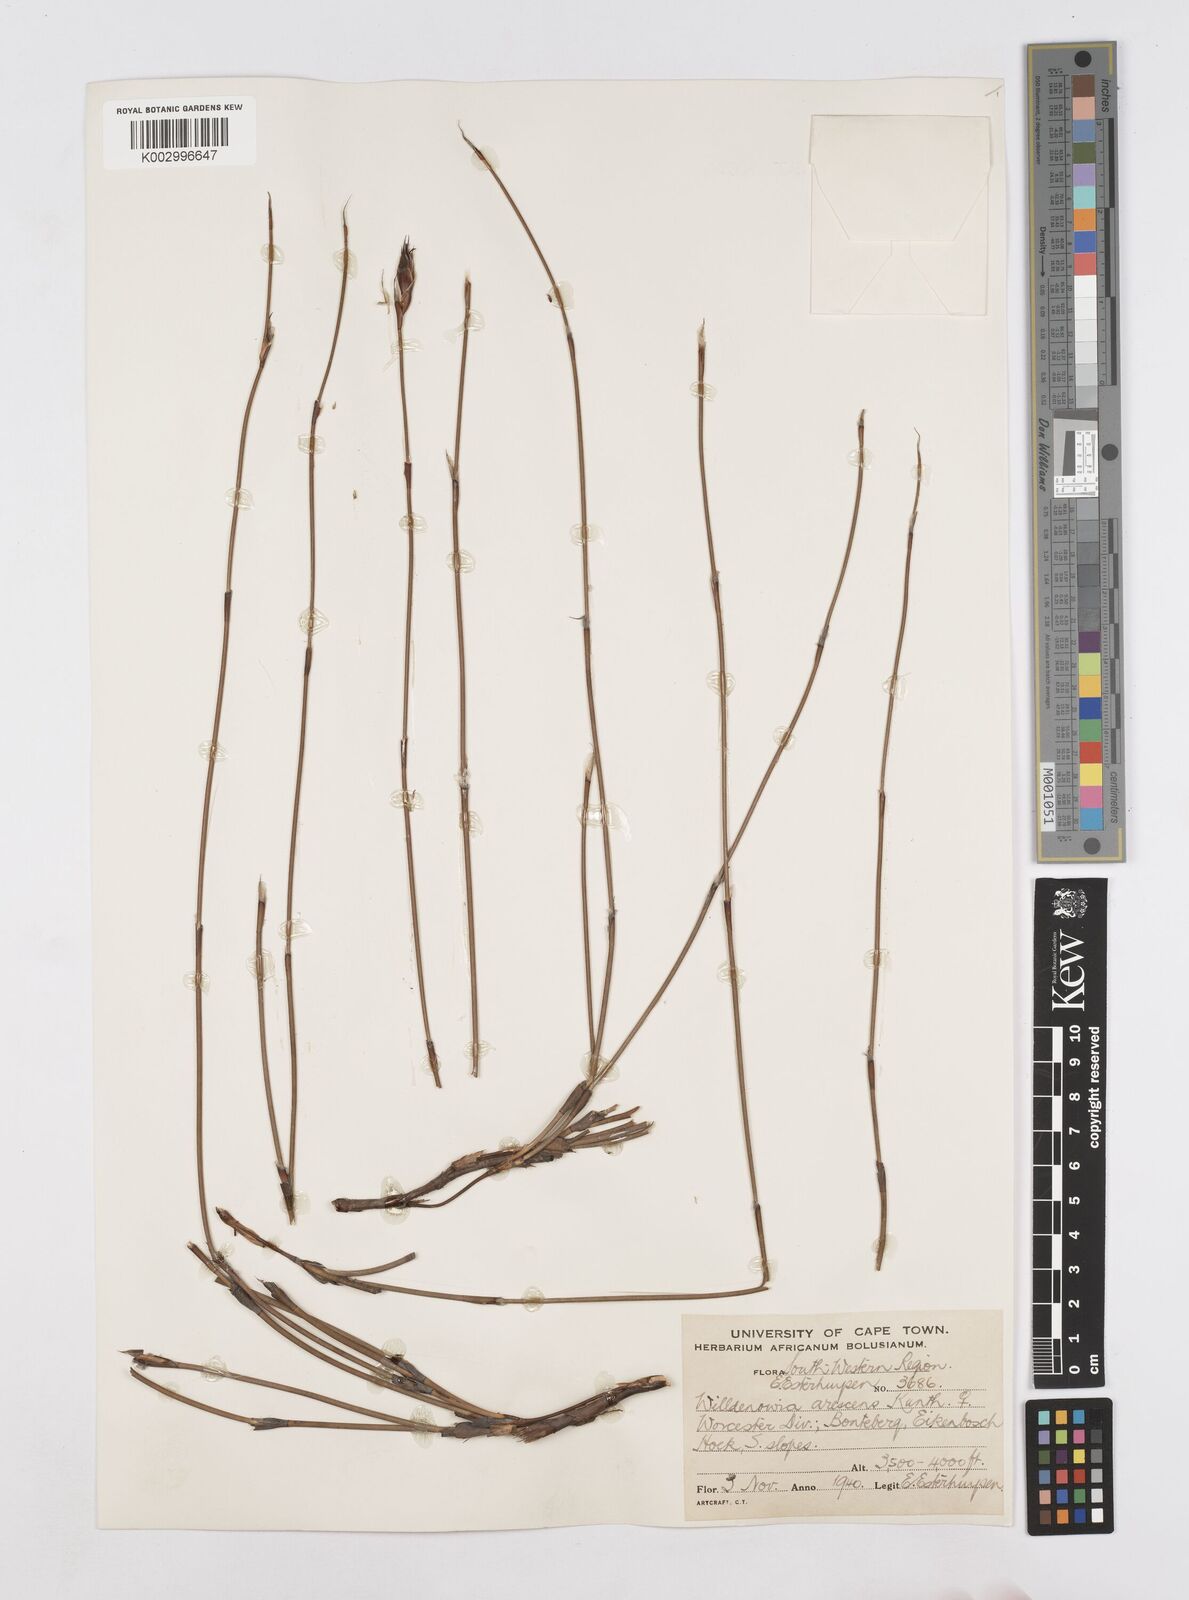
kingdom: Plantae
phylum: Tracheophyta
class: Liliopsida
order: Poales
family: Restionaceae
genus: Willdenowia
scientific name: Willdenowia arescens
